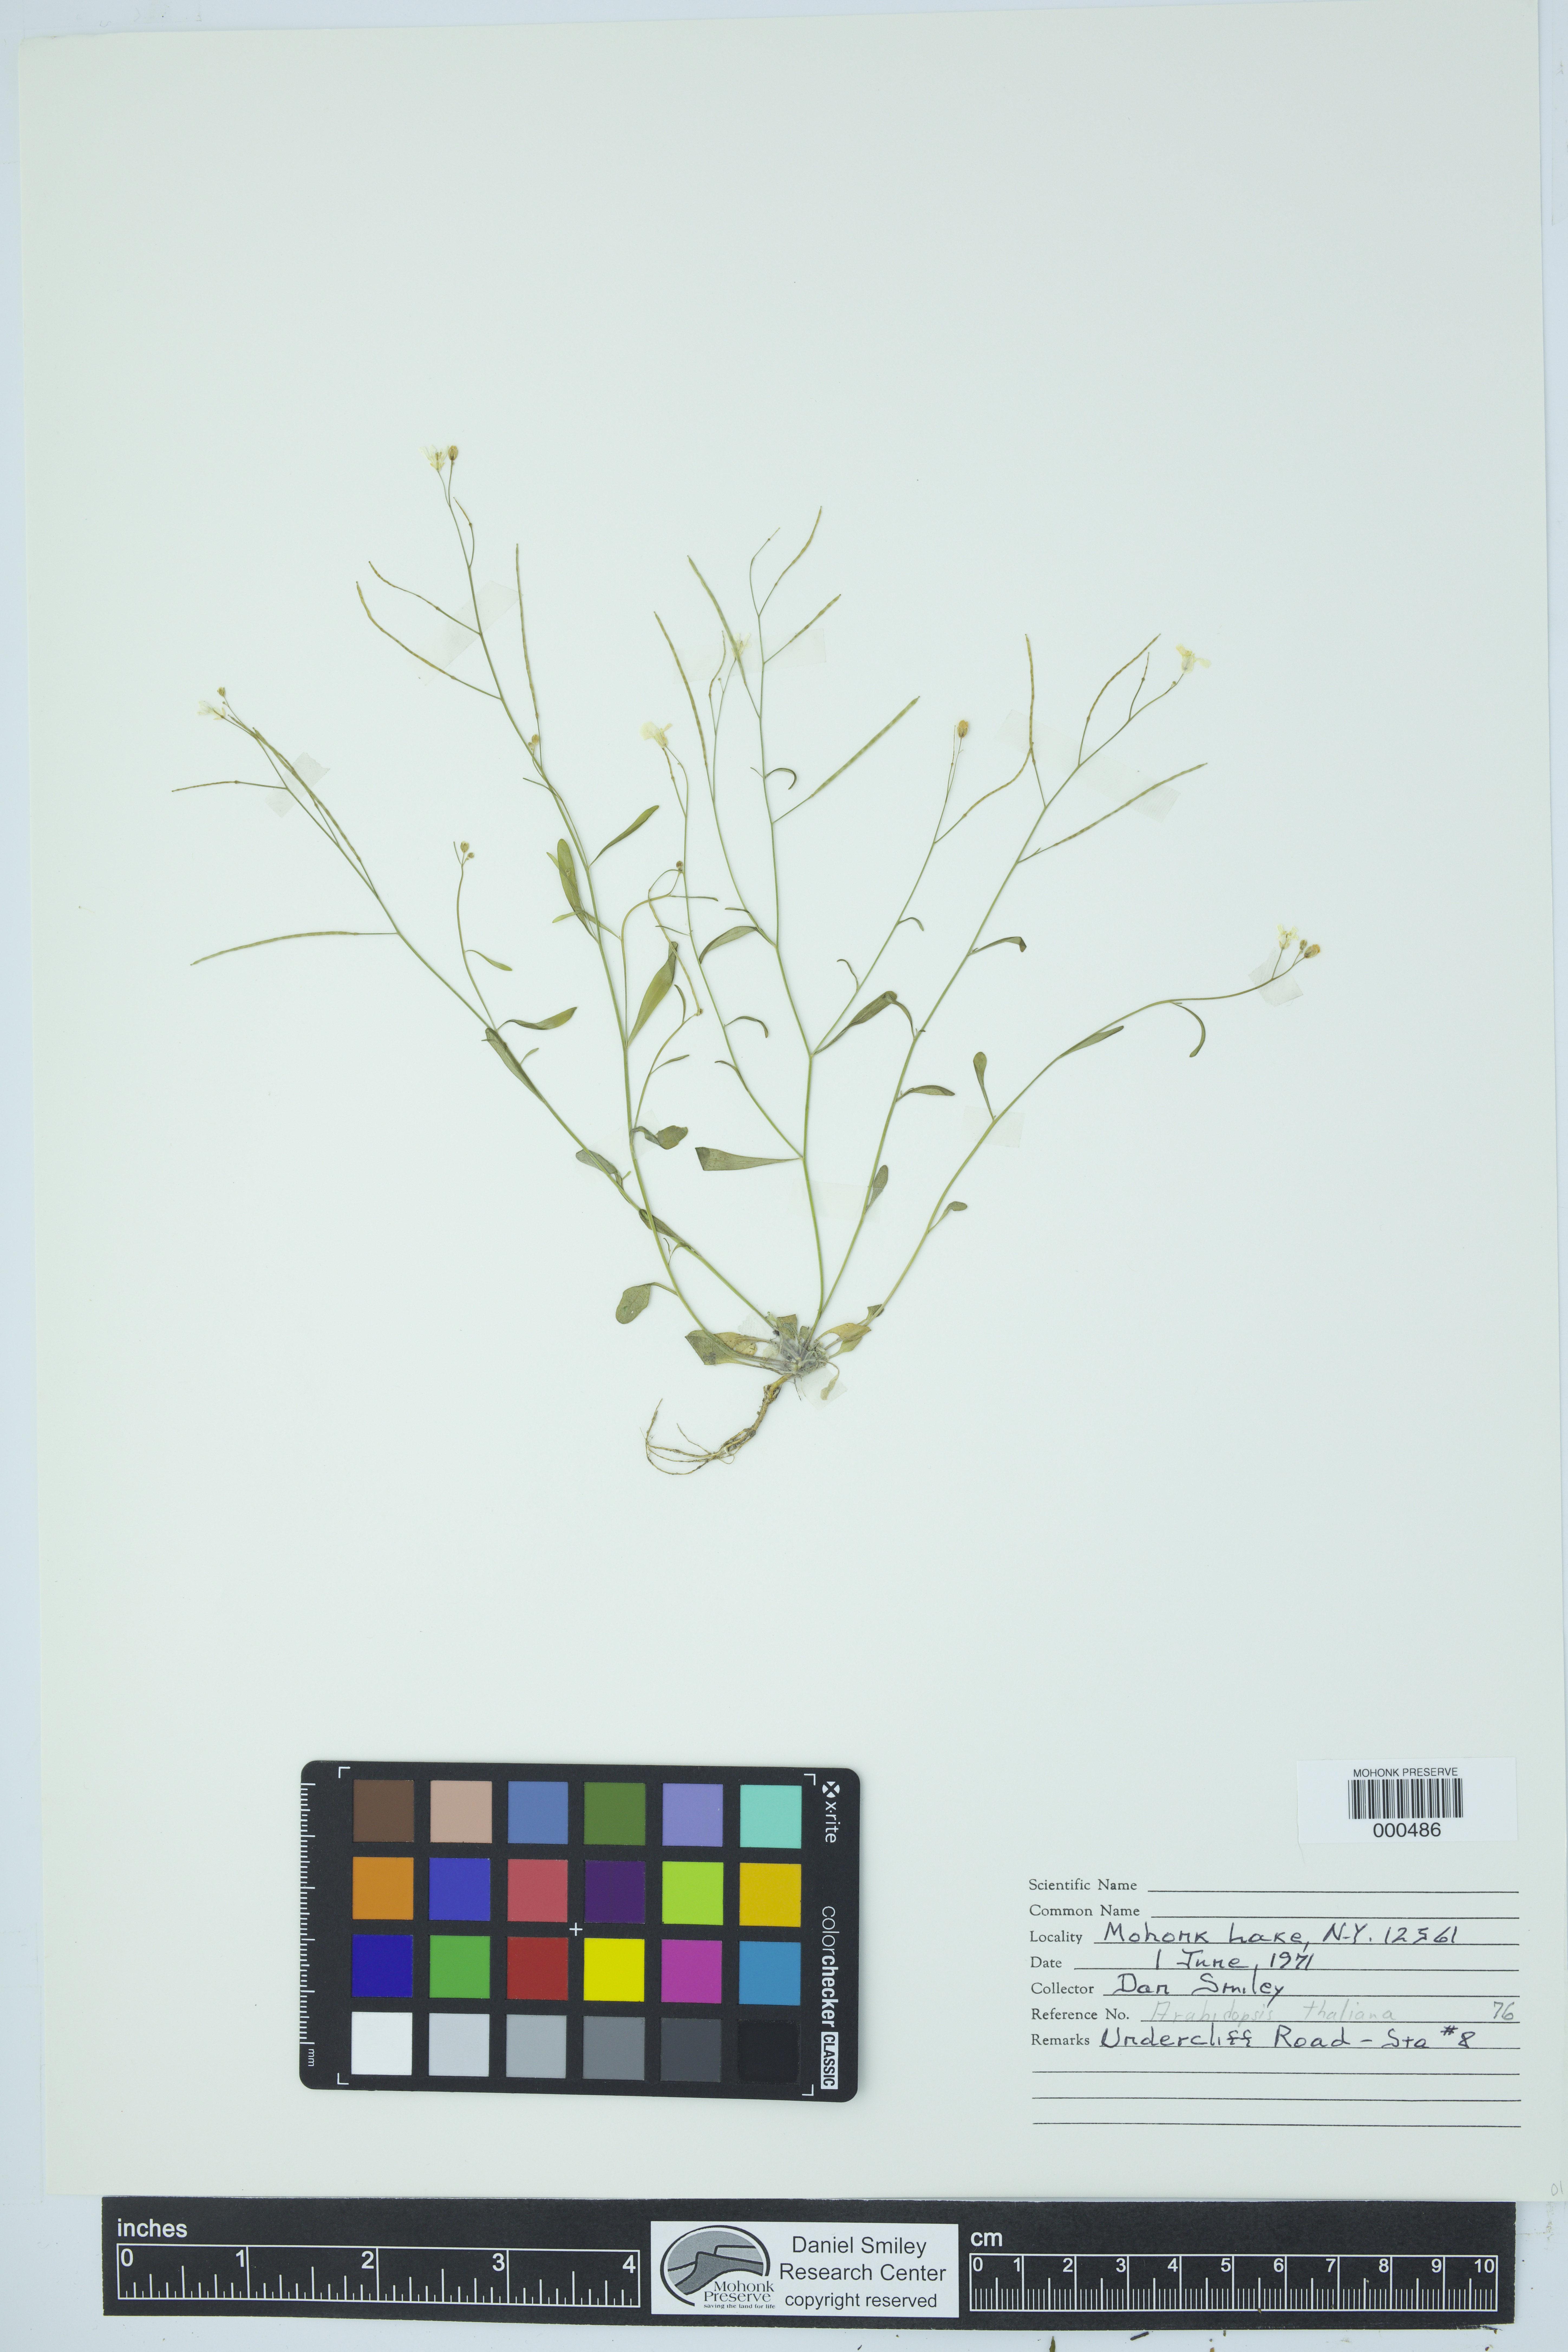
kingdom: Plantae
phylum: Tracheophyta
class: Magnoliopsida
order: Brassicales
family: Brassicaceae
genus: Arabidopsis
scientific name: Arabidopsis thaliana
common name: Thale cress
